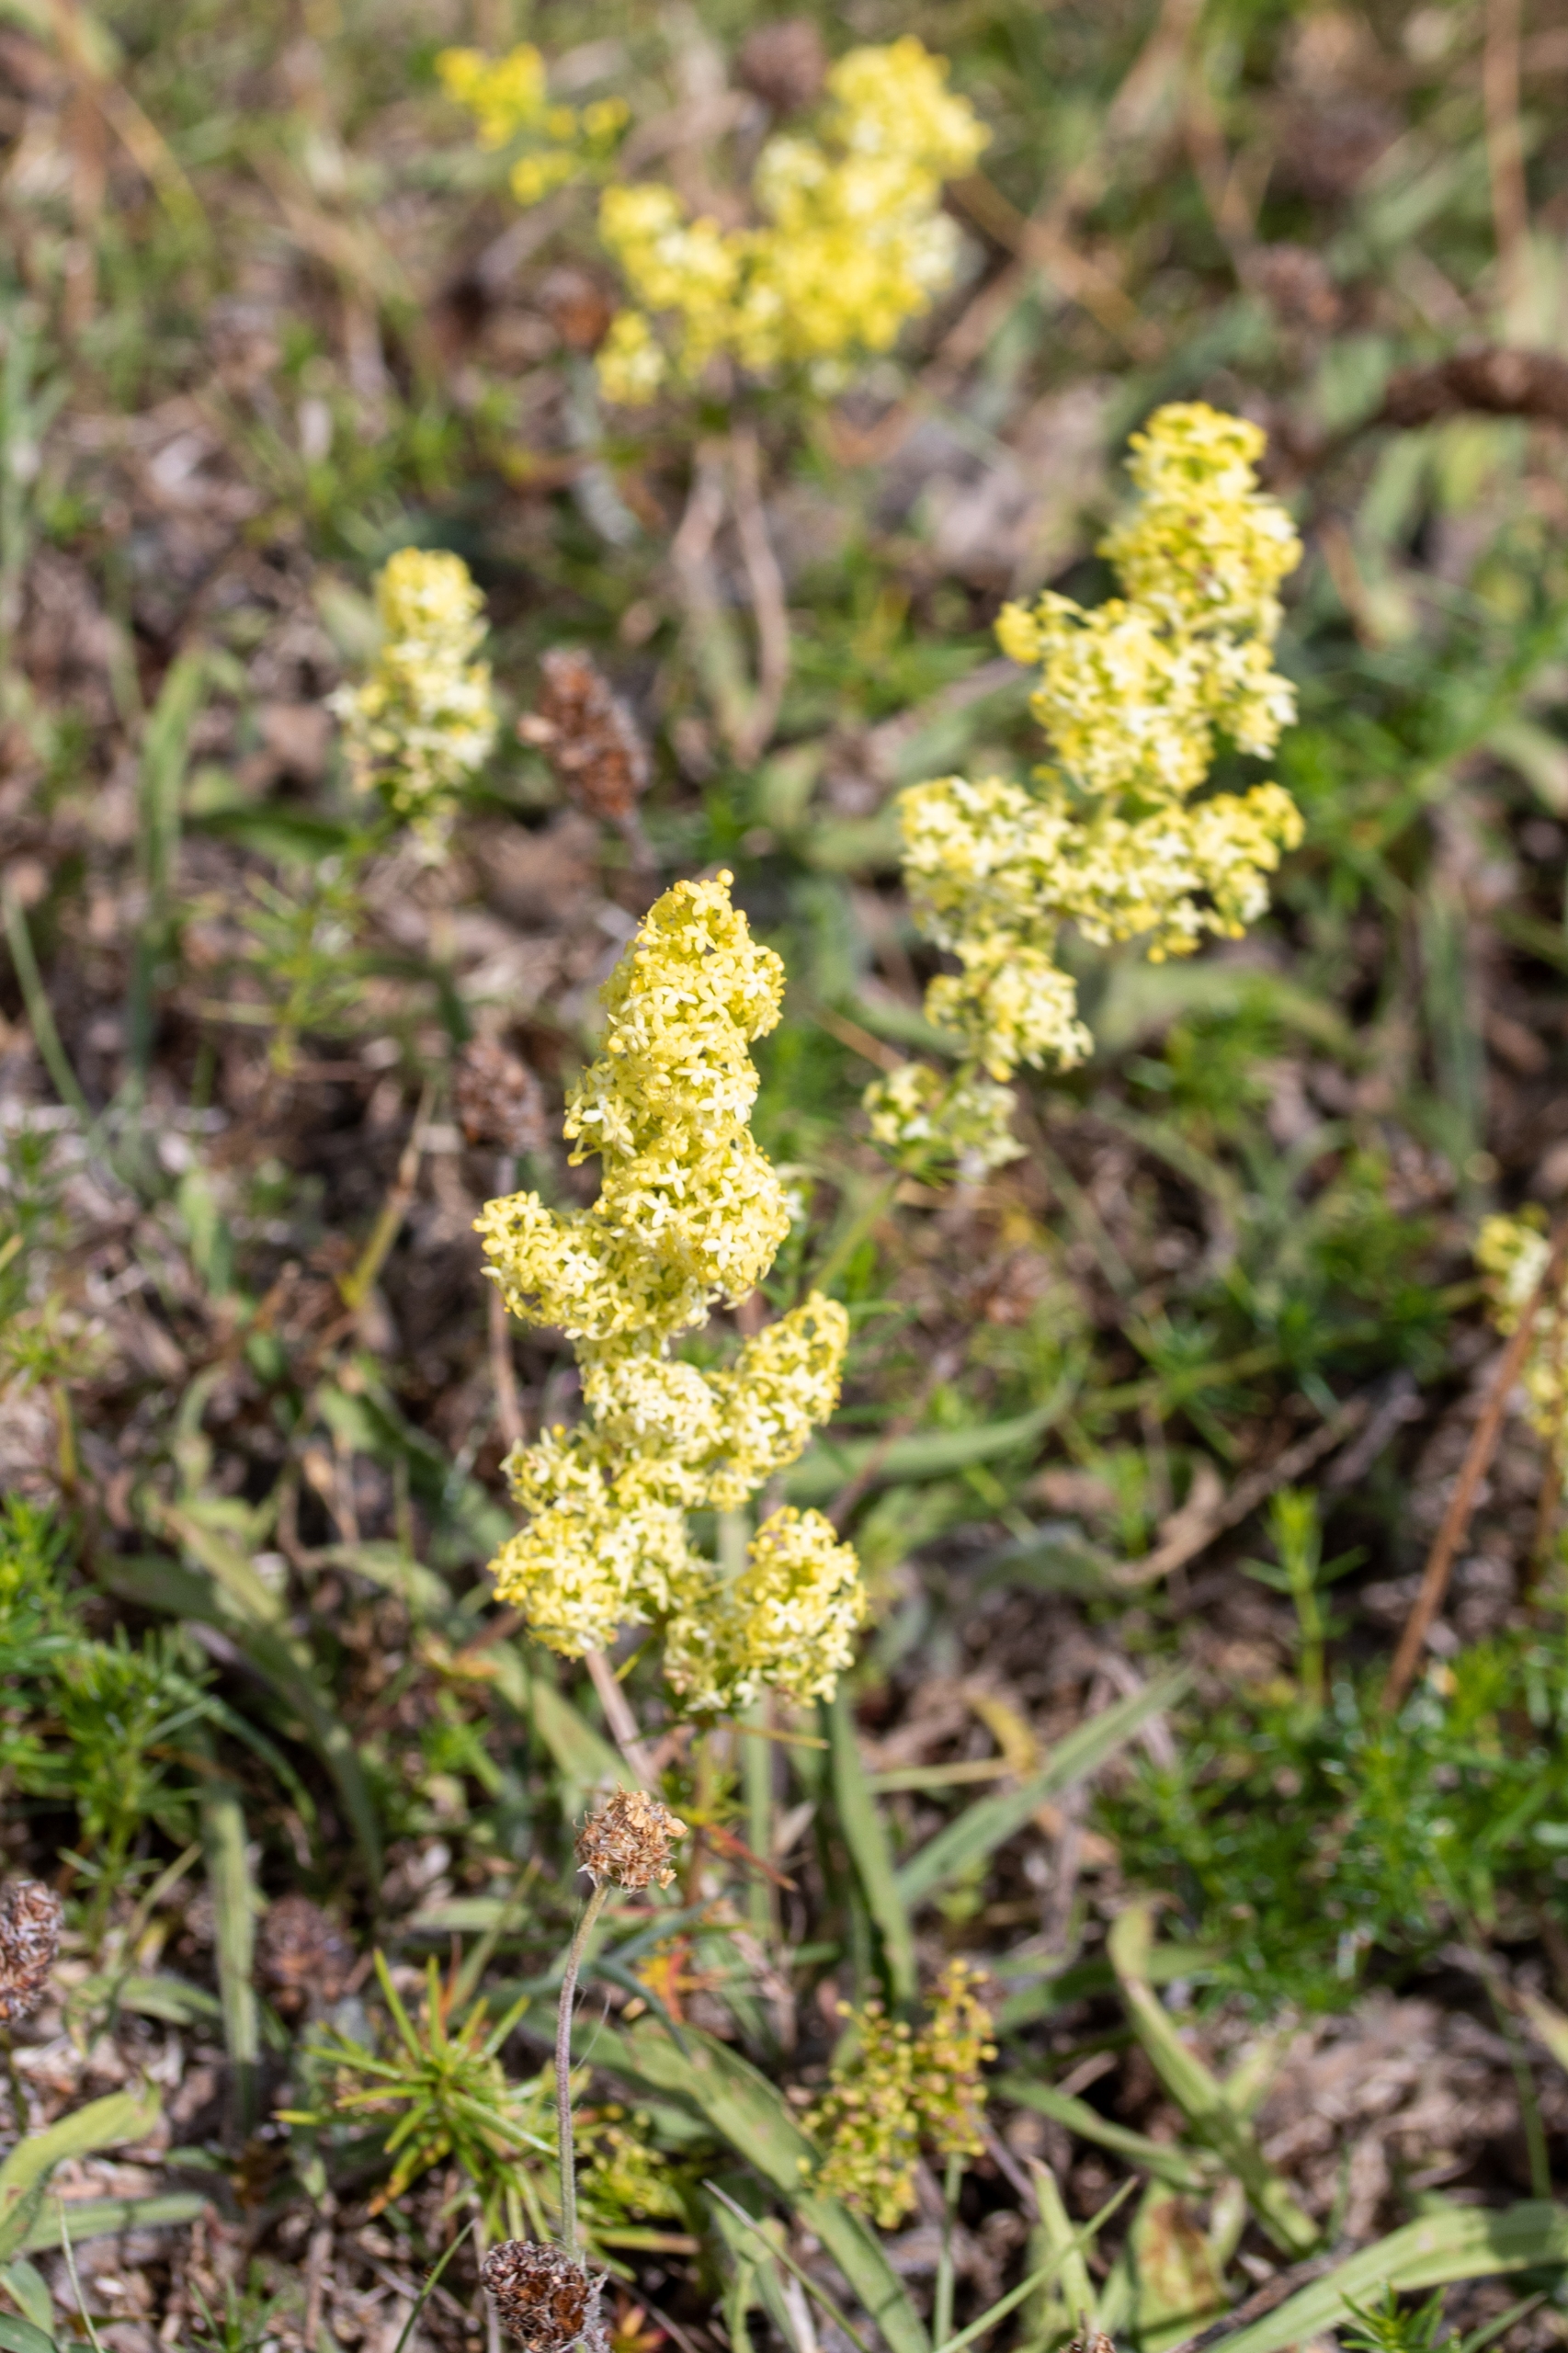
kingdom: Plantae
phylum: Tracheophyta
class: Magnoliopsida
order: Gentianales
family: Rubiaceae
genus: Galium
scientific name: Galium verum
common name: Gul snerre
